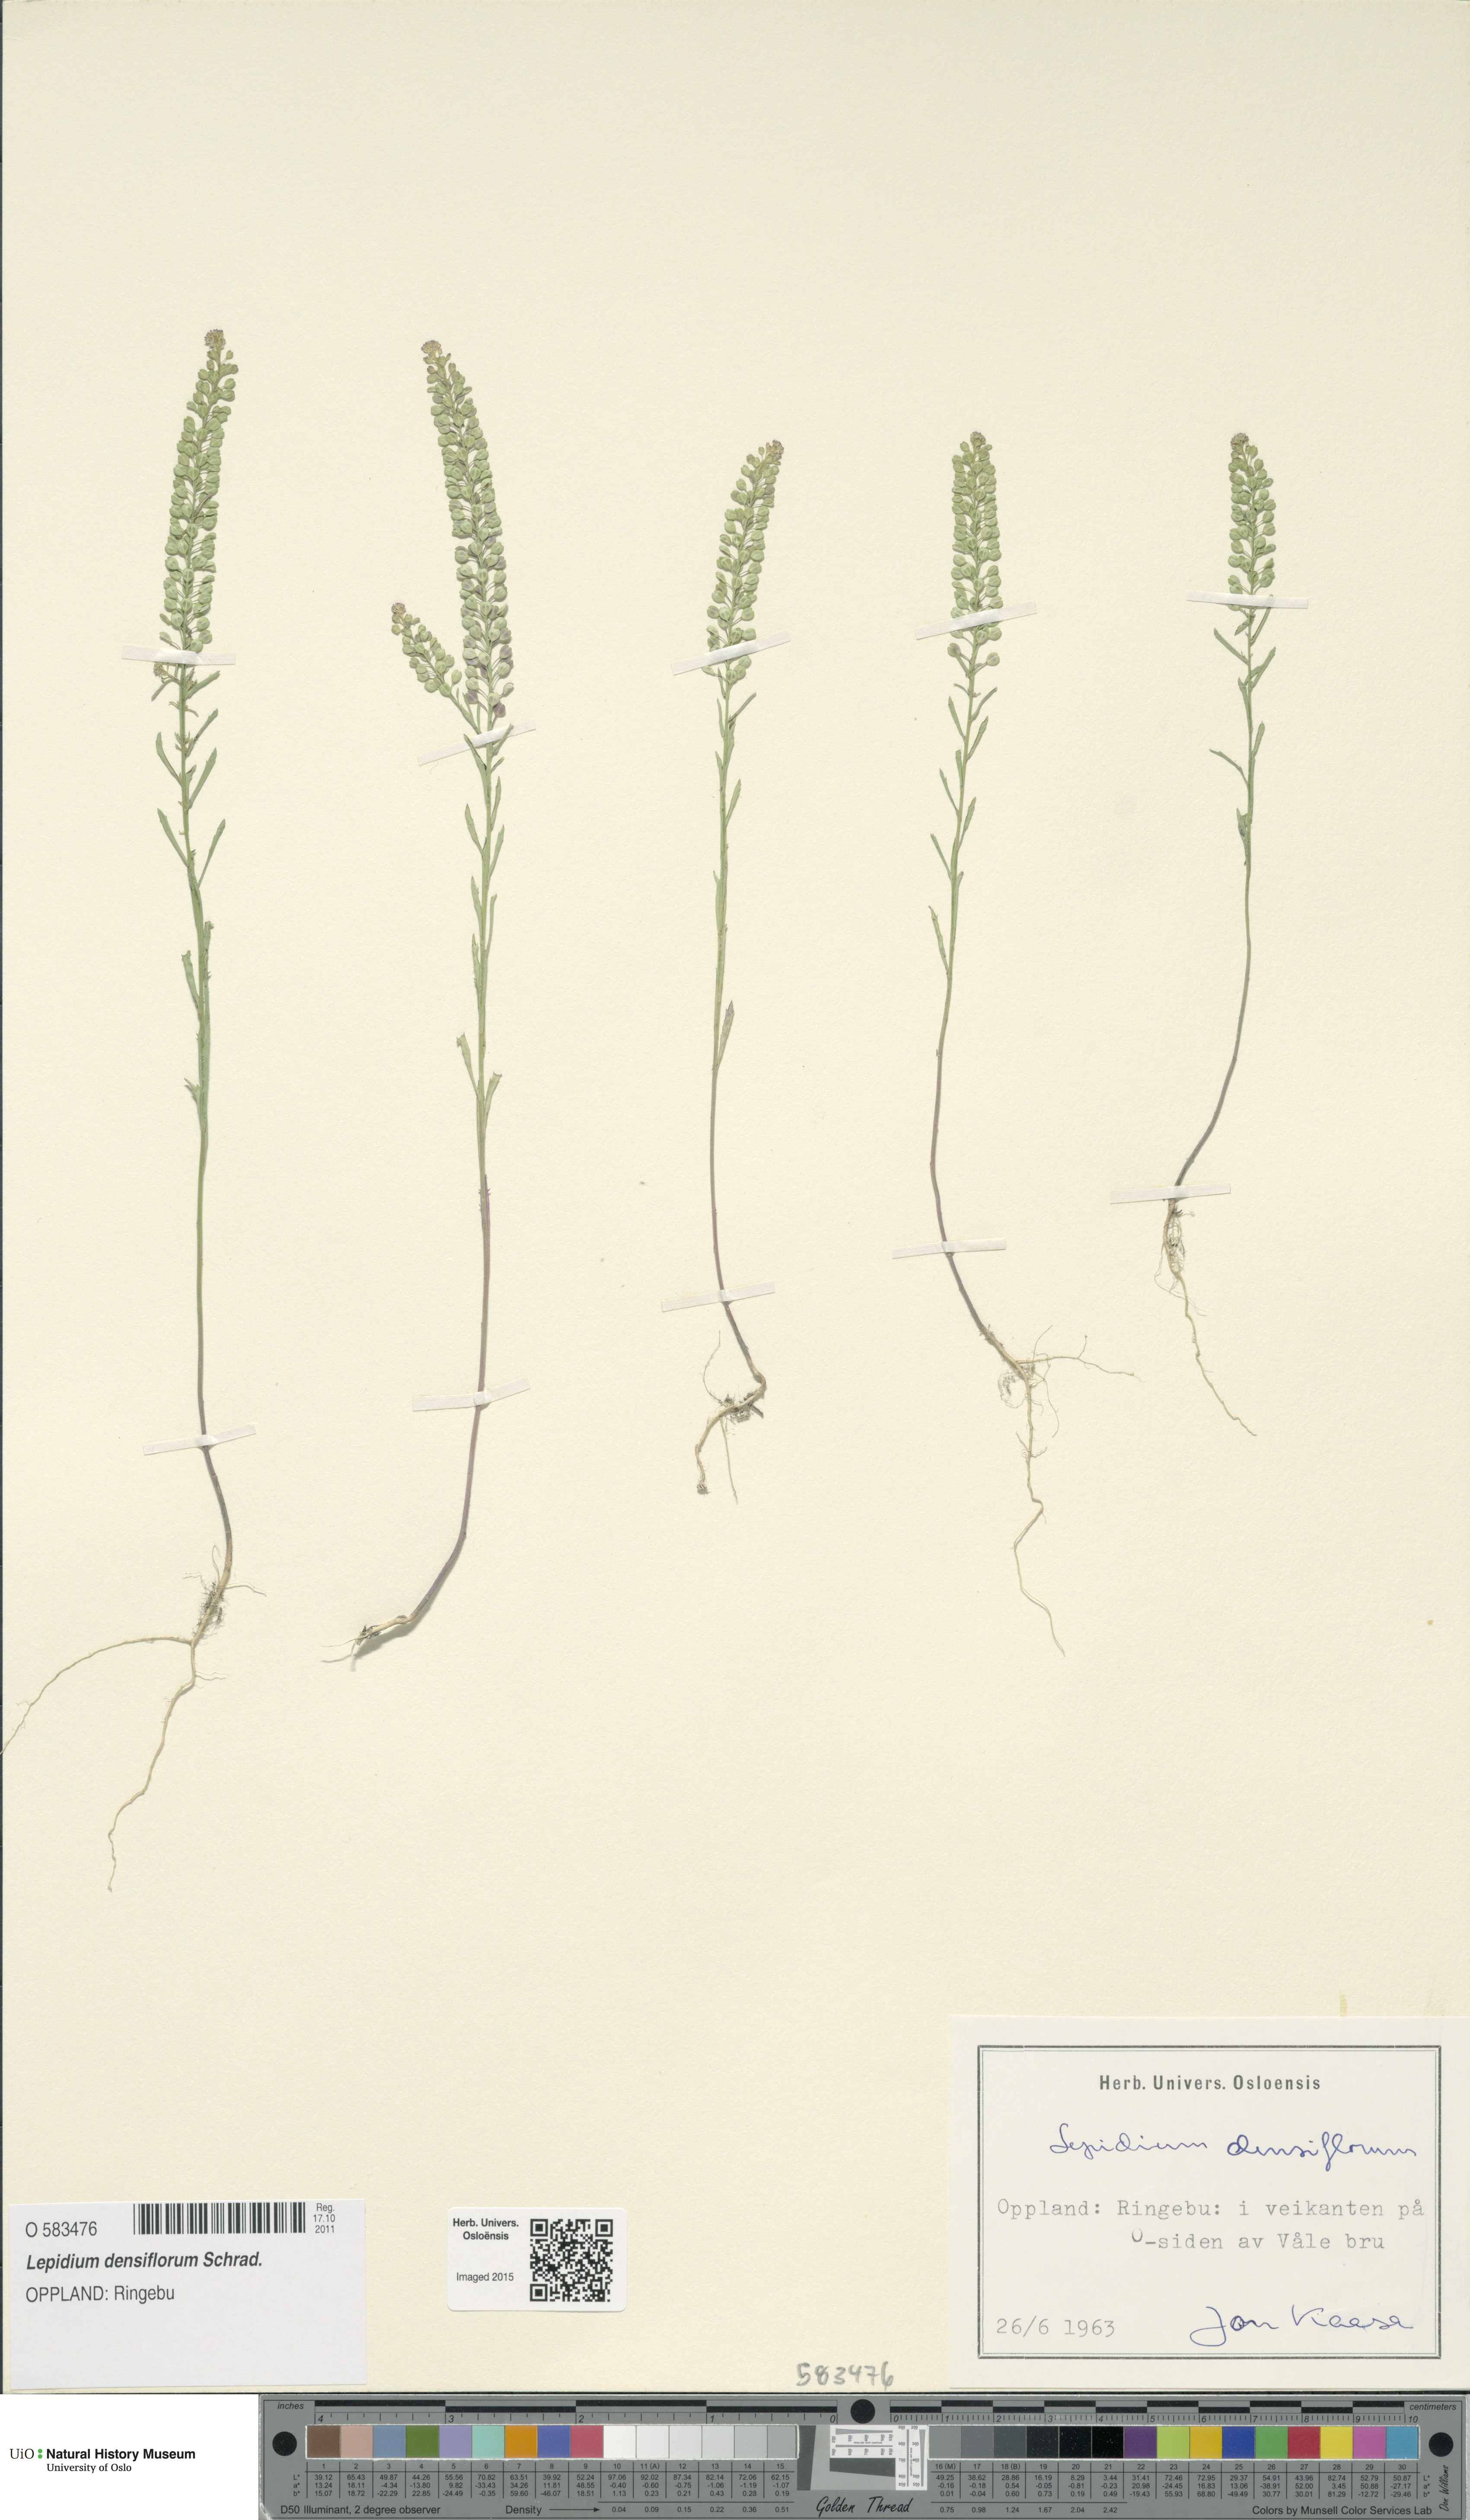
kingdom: Plantae
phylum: Tracheophyta
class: Magnoliopsida
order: Brassicales
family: Brassicaceae
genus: Lepidium
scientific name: Lepidium densiflorum
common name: Miner's pepperwort
